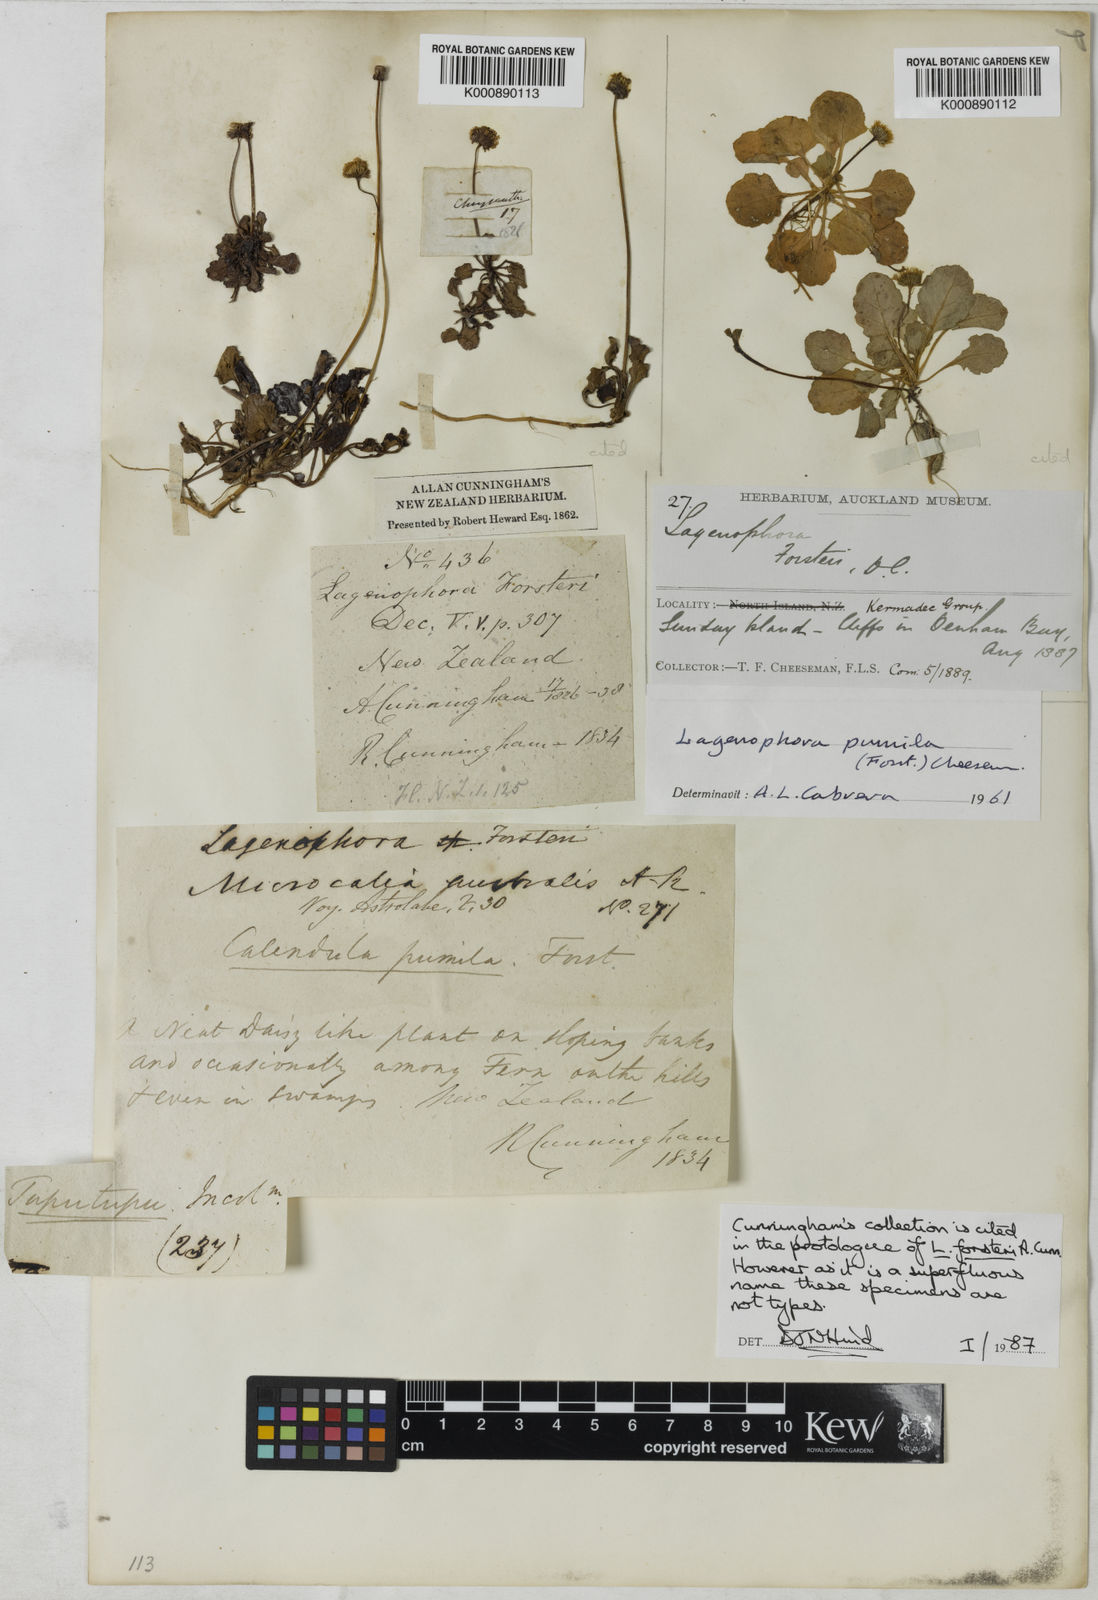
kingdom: Plantae
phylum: Tracheophyta
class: Magnoliopsida
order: Asterales
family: Asteraceae
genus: Lagenophora
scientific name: Lagenophora
